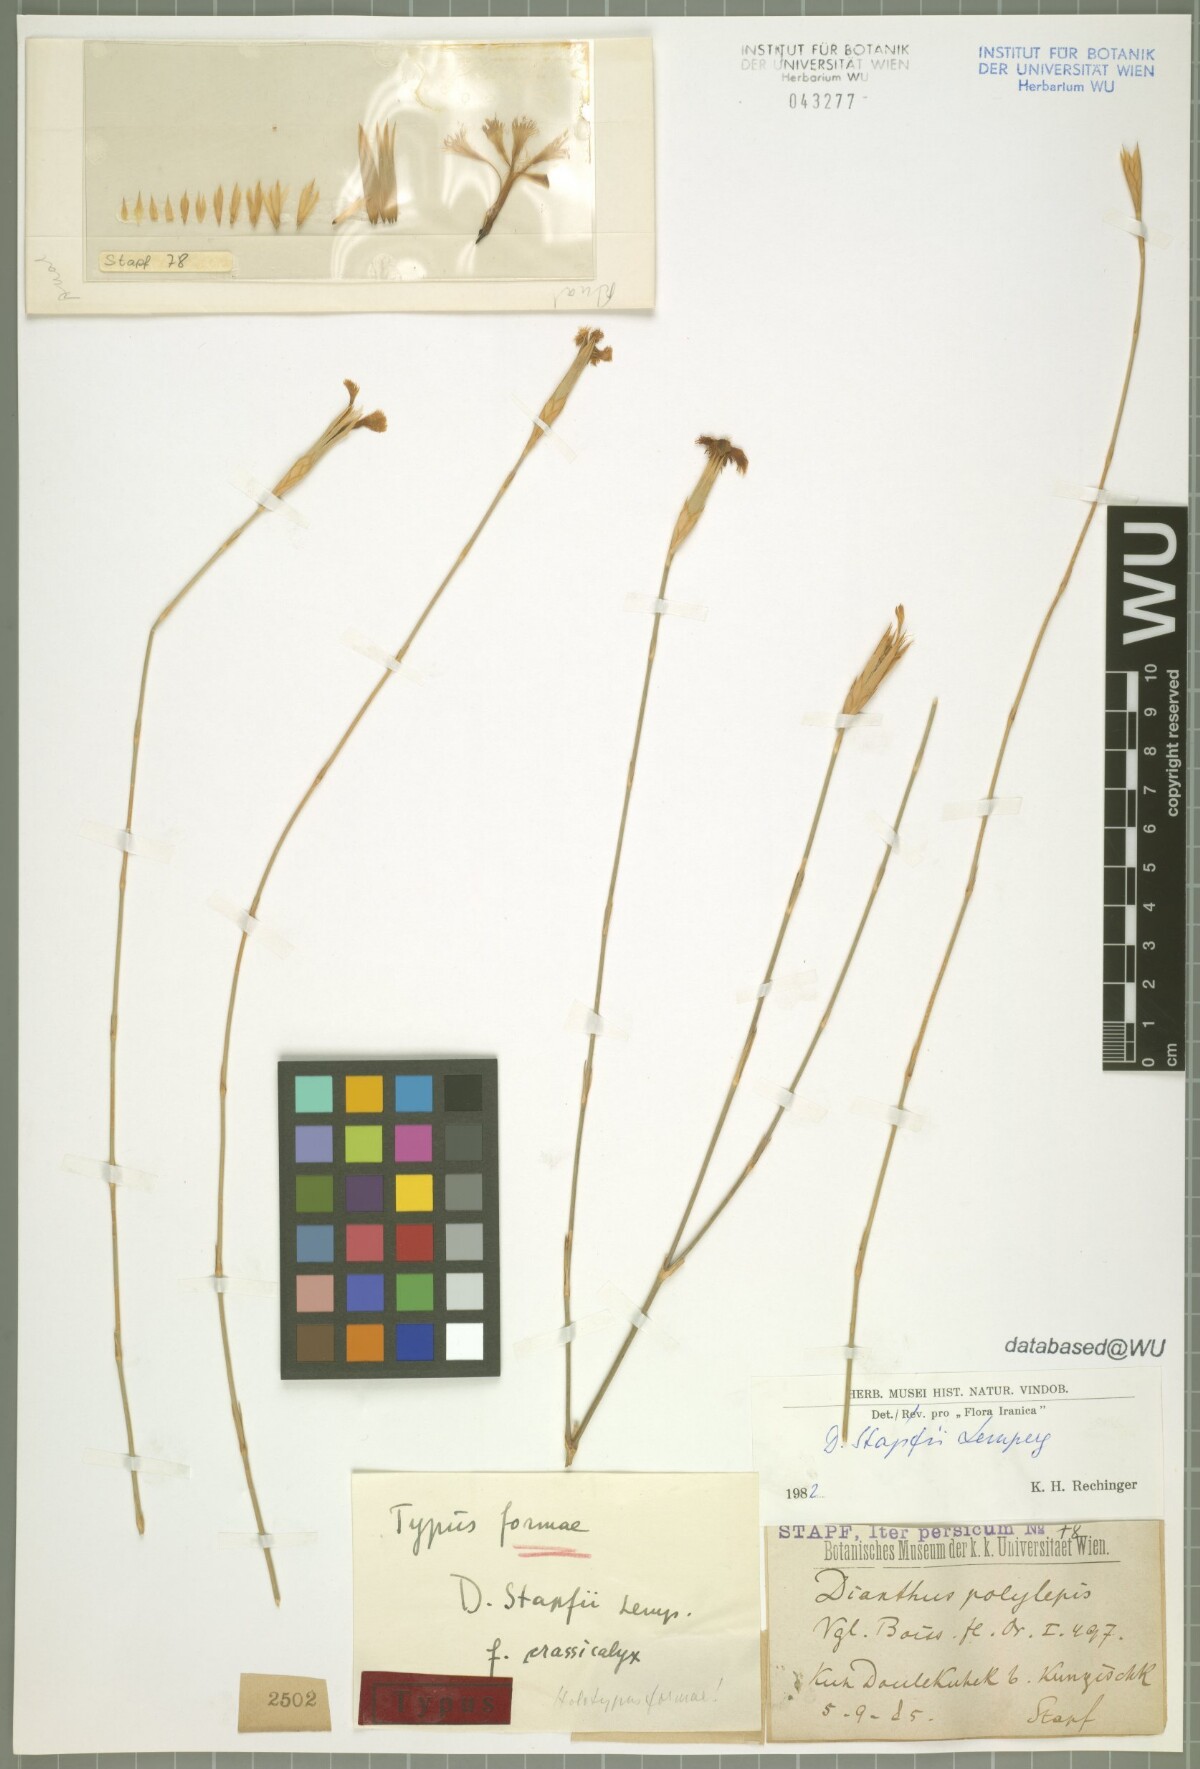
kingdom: Plantae
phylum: Tracheophyta
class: Magnoliopsida
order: Caryophyllales
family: Caryophyllaceae
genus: Dianthus
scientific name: Dianthus stapfii
